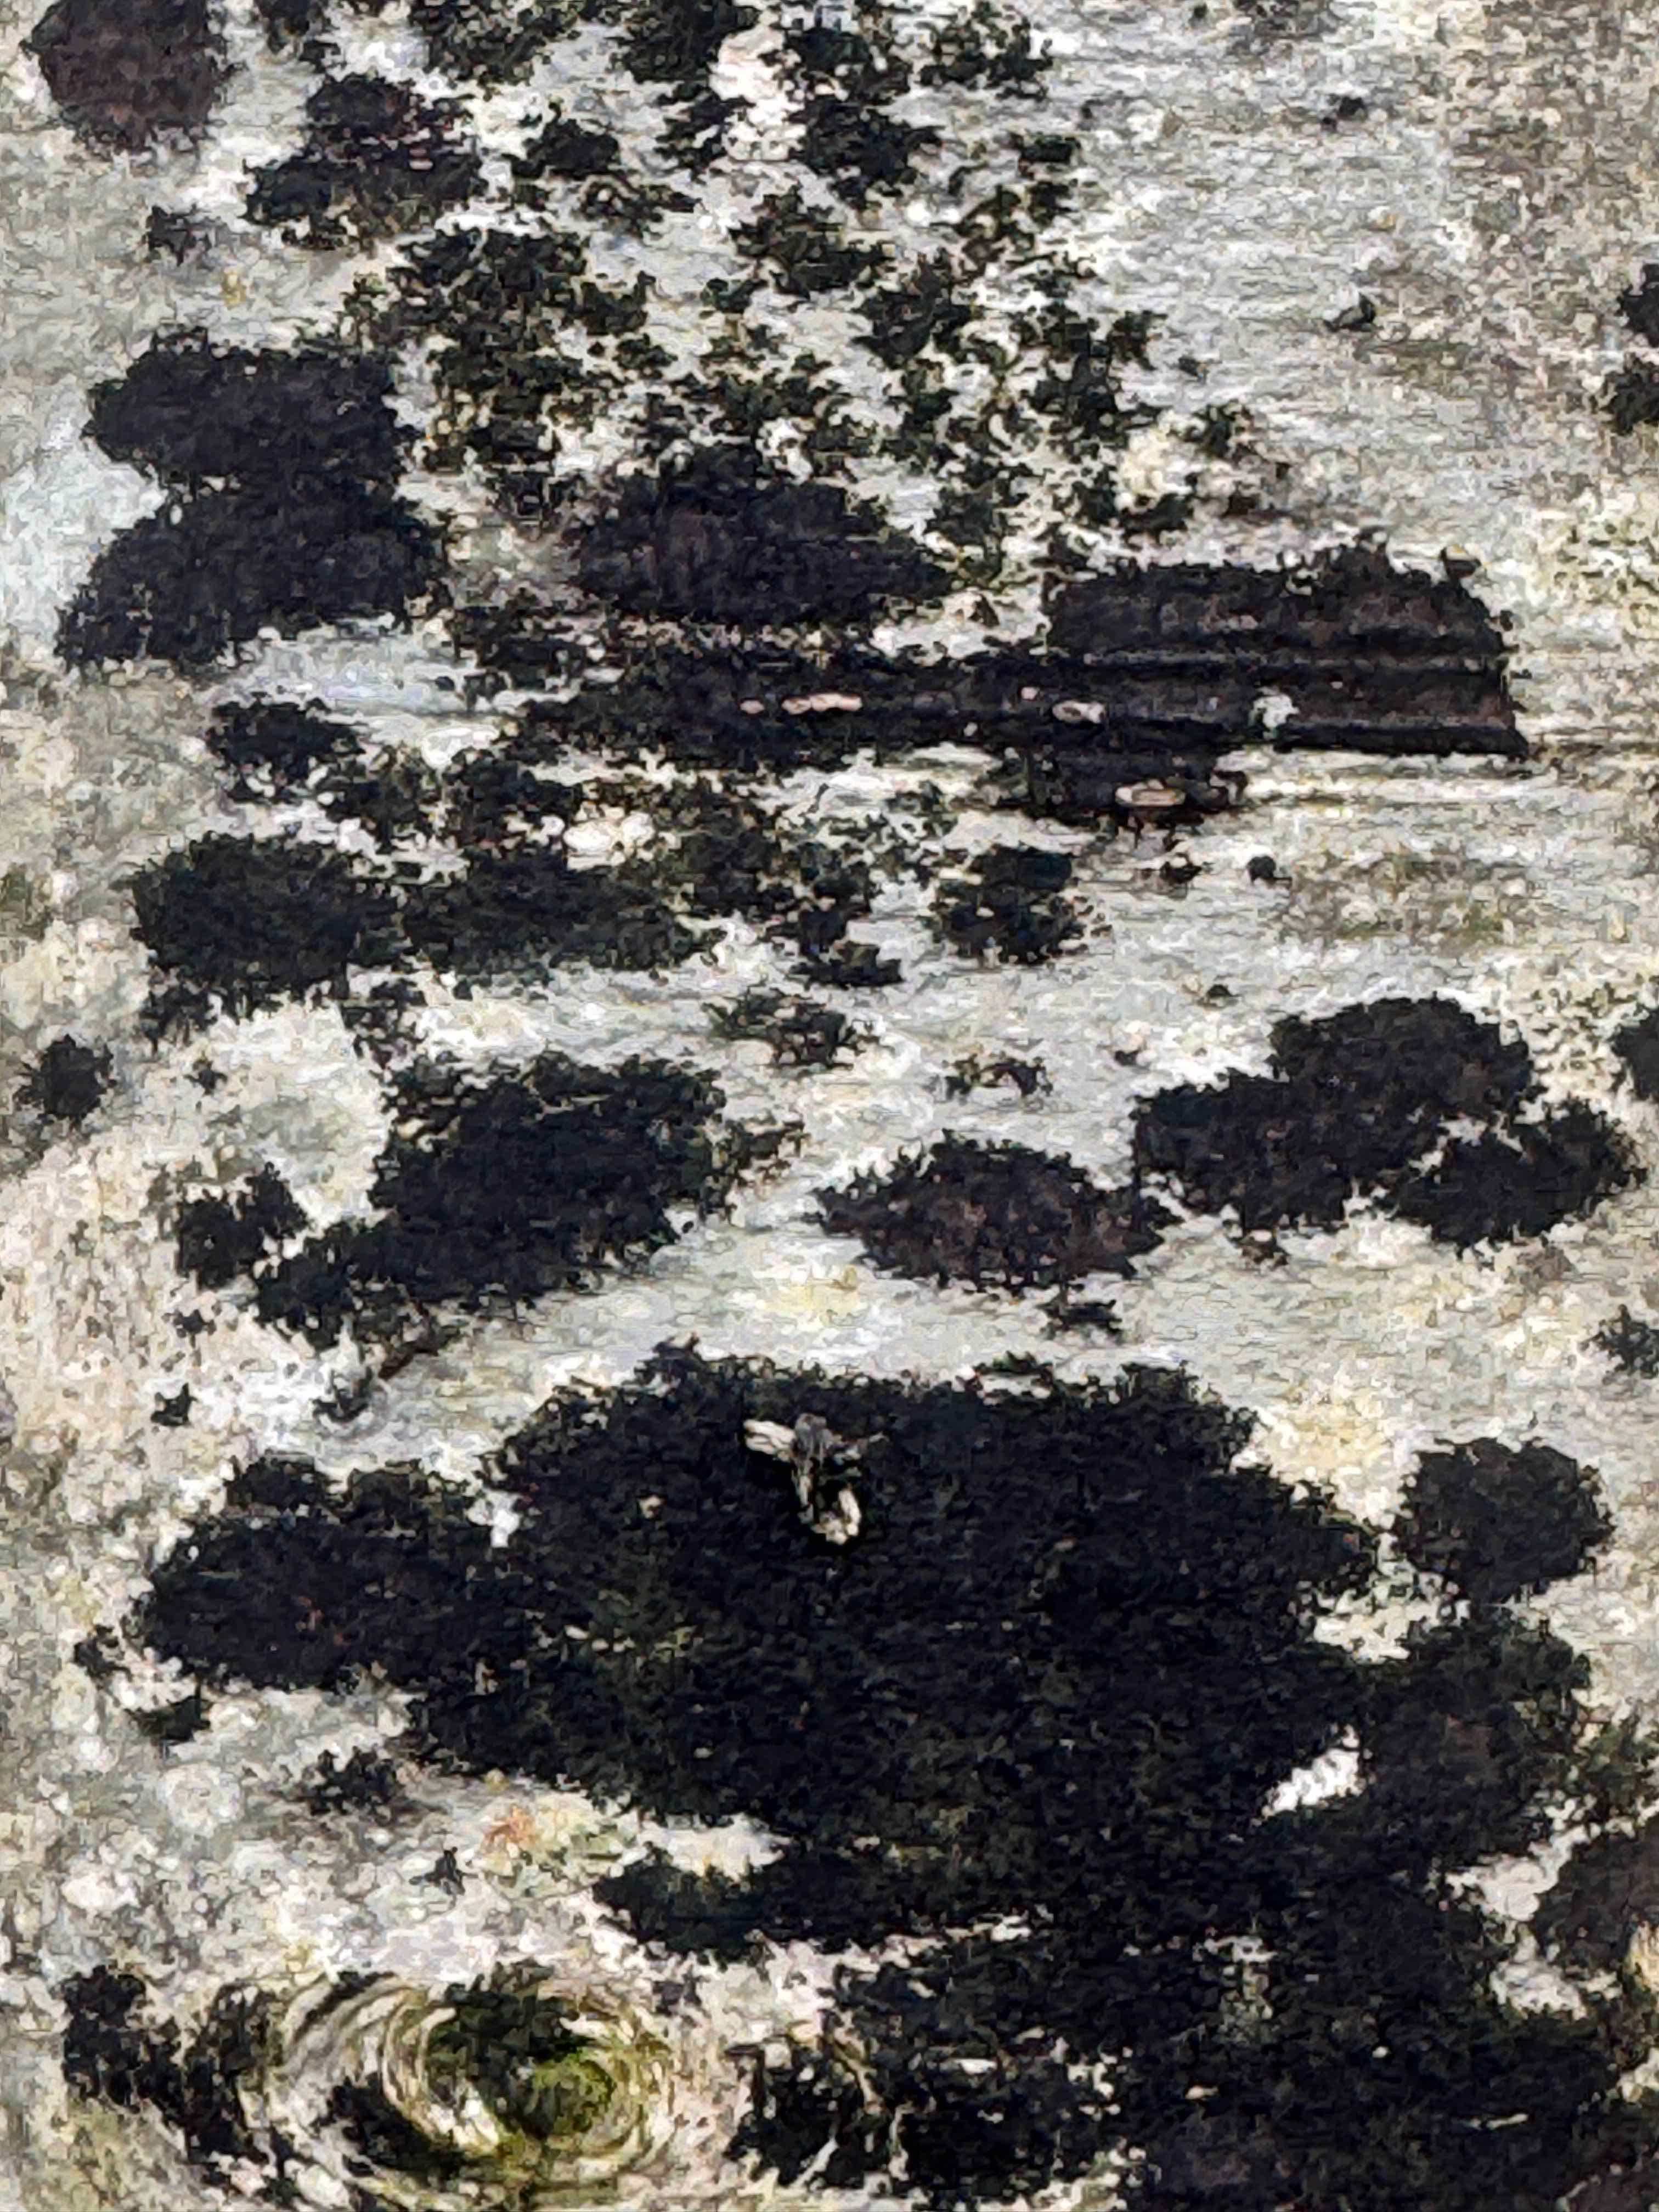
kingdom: Fungi
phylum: Ascomycota
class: Leotiomycetes
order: Rhytismatales
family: Ascodichaenaceae
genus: Ascodichaena
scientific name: Ascodichaena rugosa
